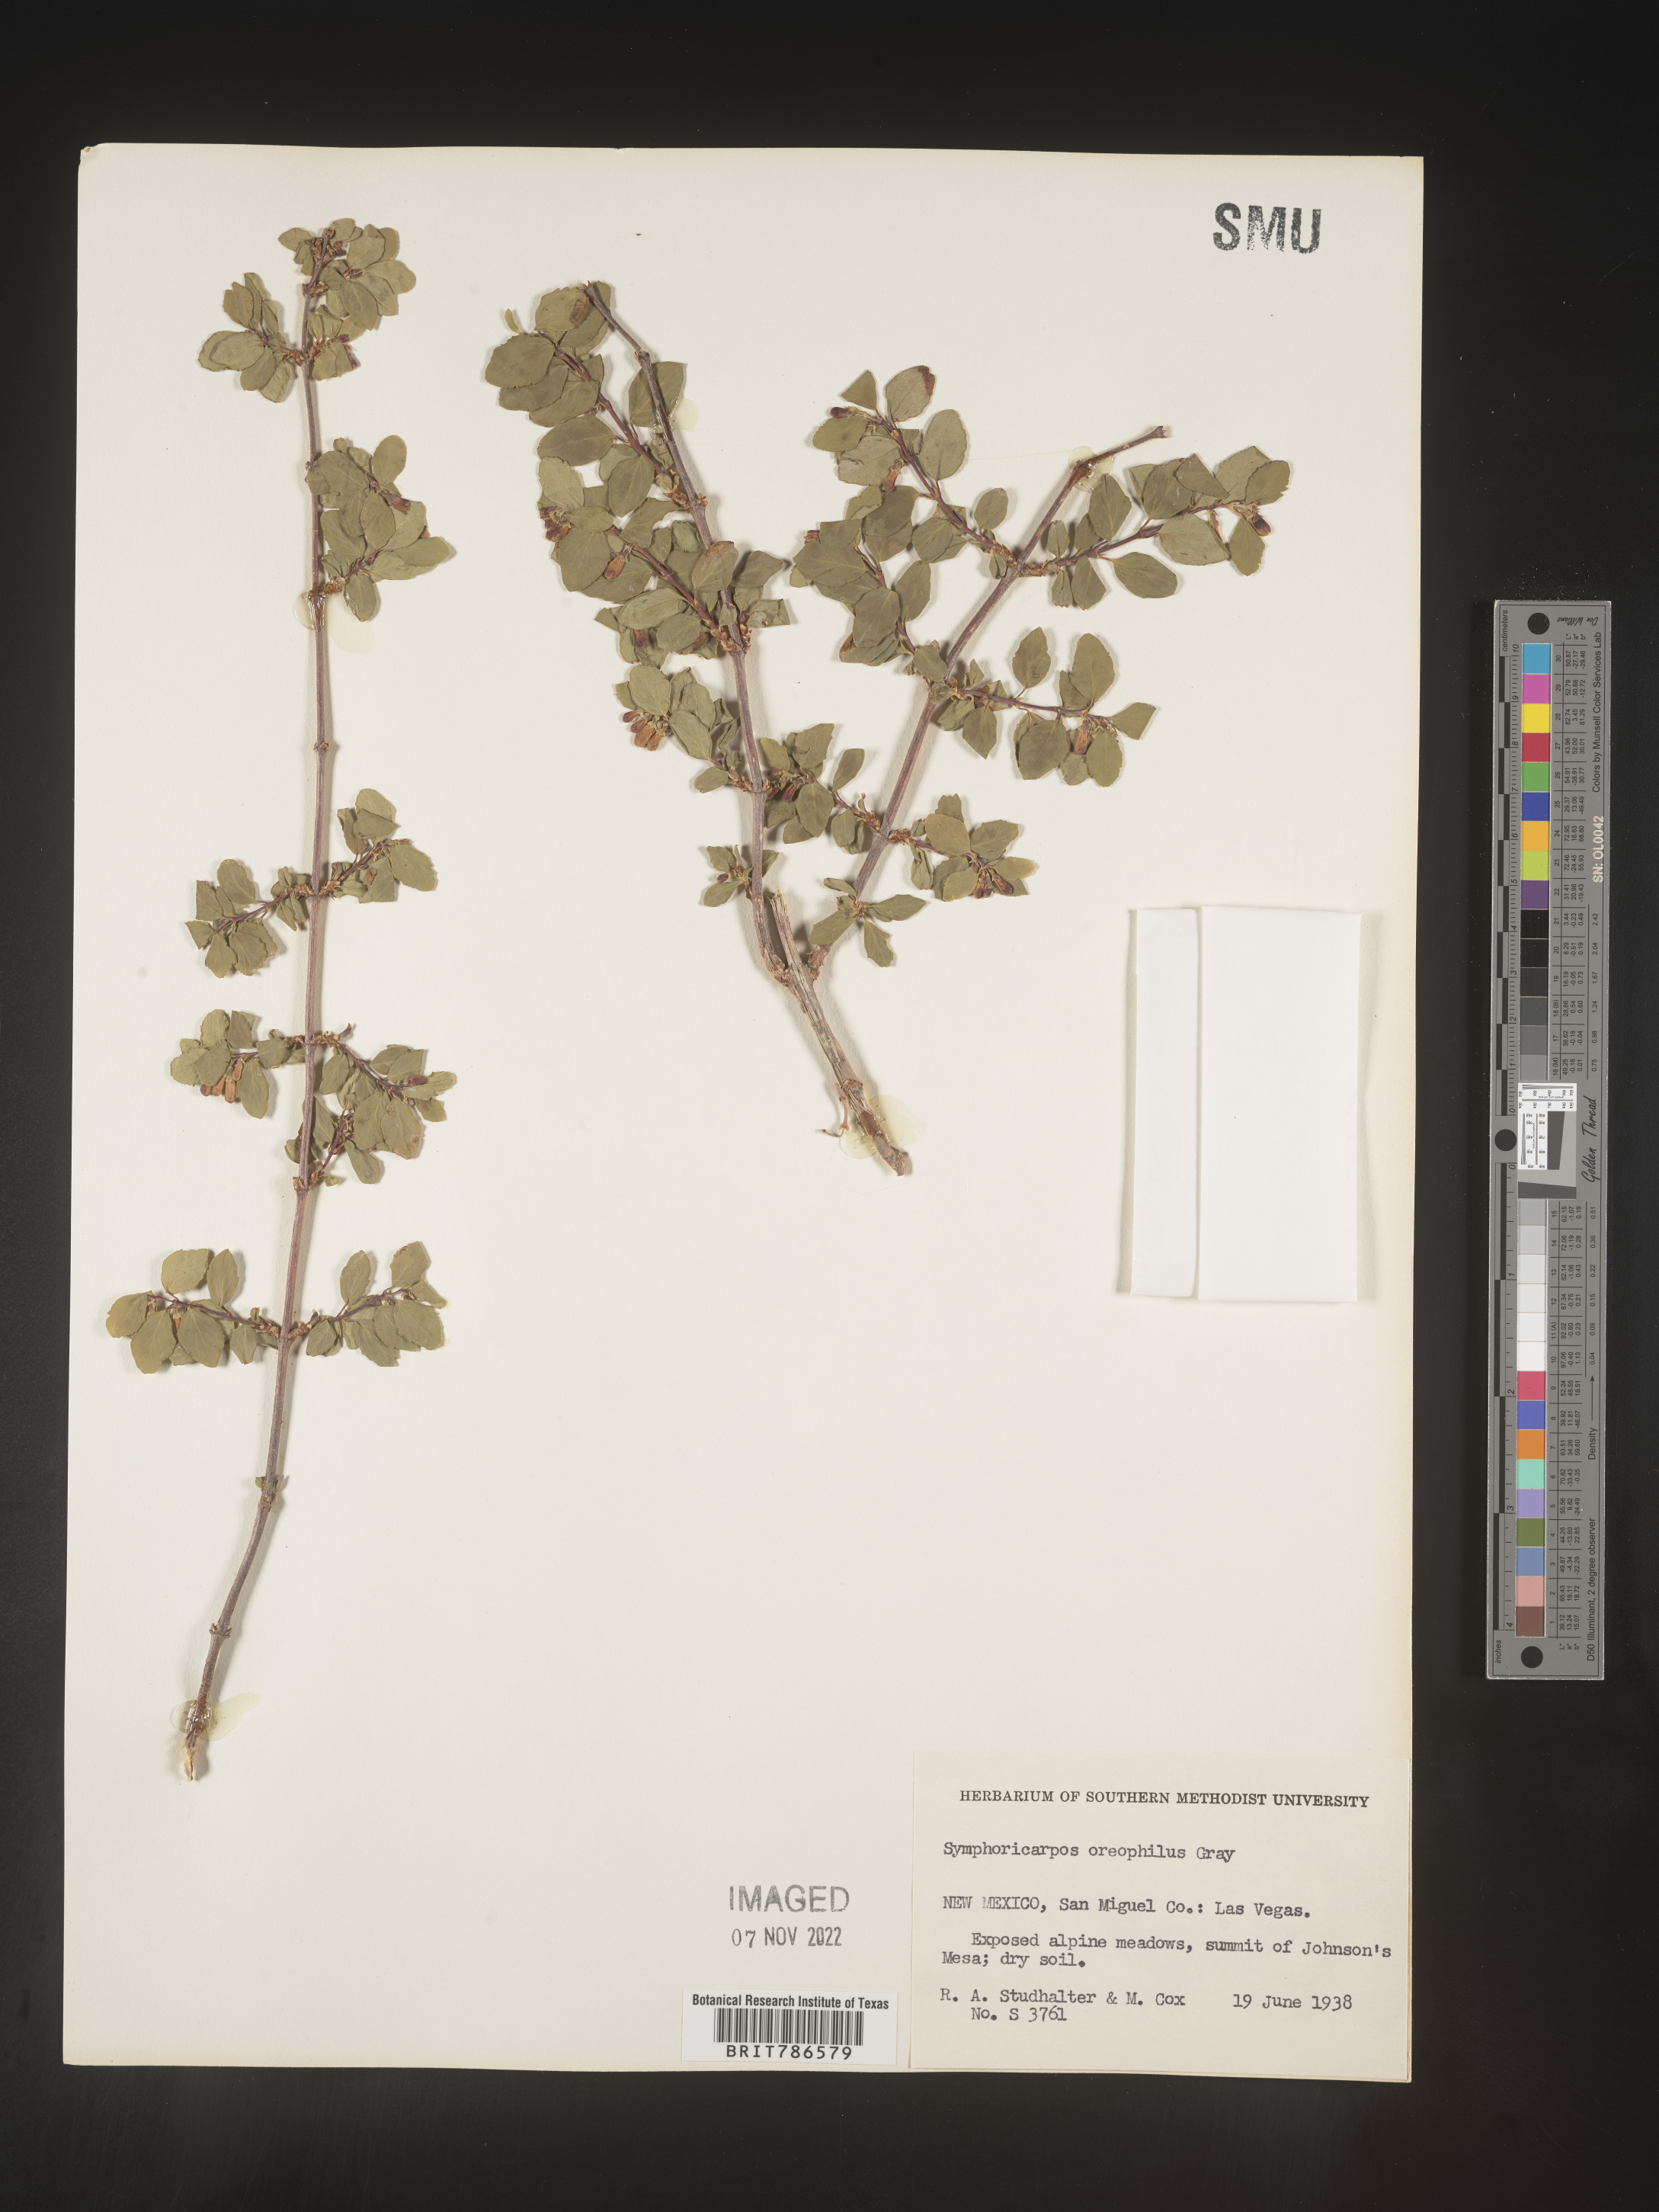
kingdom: Plantae
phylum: Tracheophyta
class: Magnoliopsida
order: Dipsacales
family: Caprifoliaceae
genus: Symphoricarpos
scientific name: Symphoricarpos oreophilus
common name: Mountain snowberry
